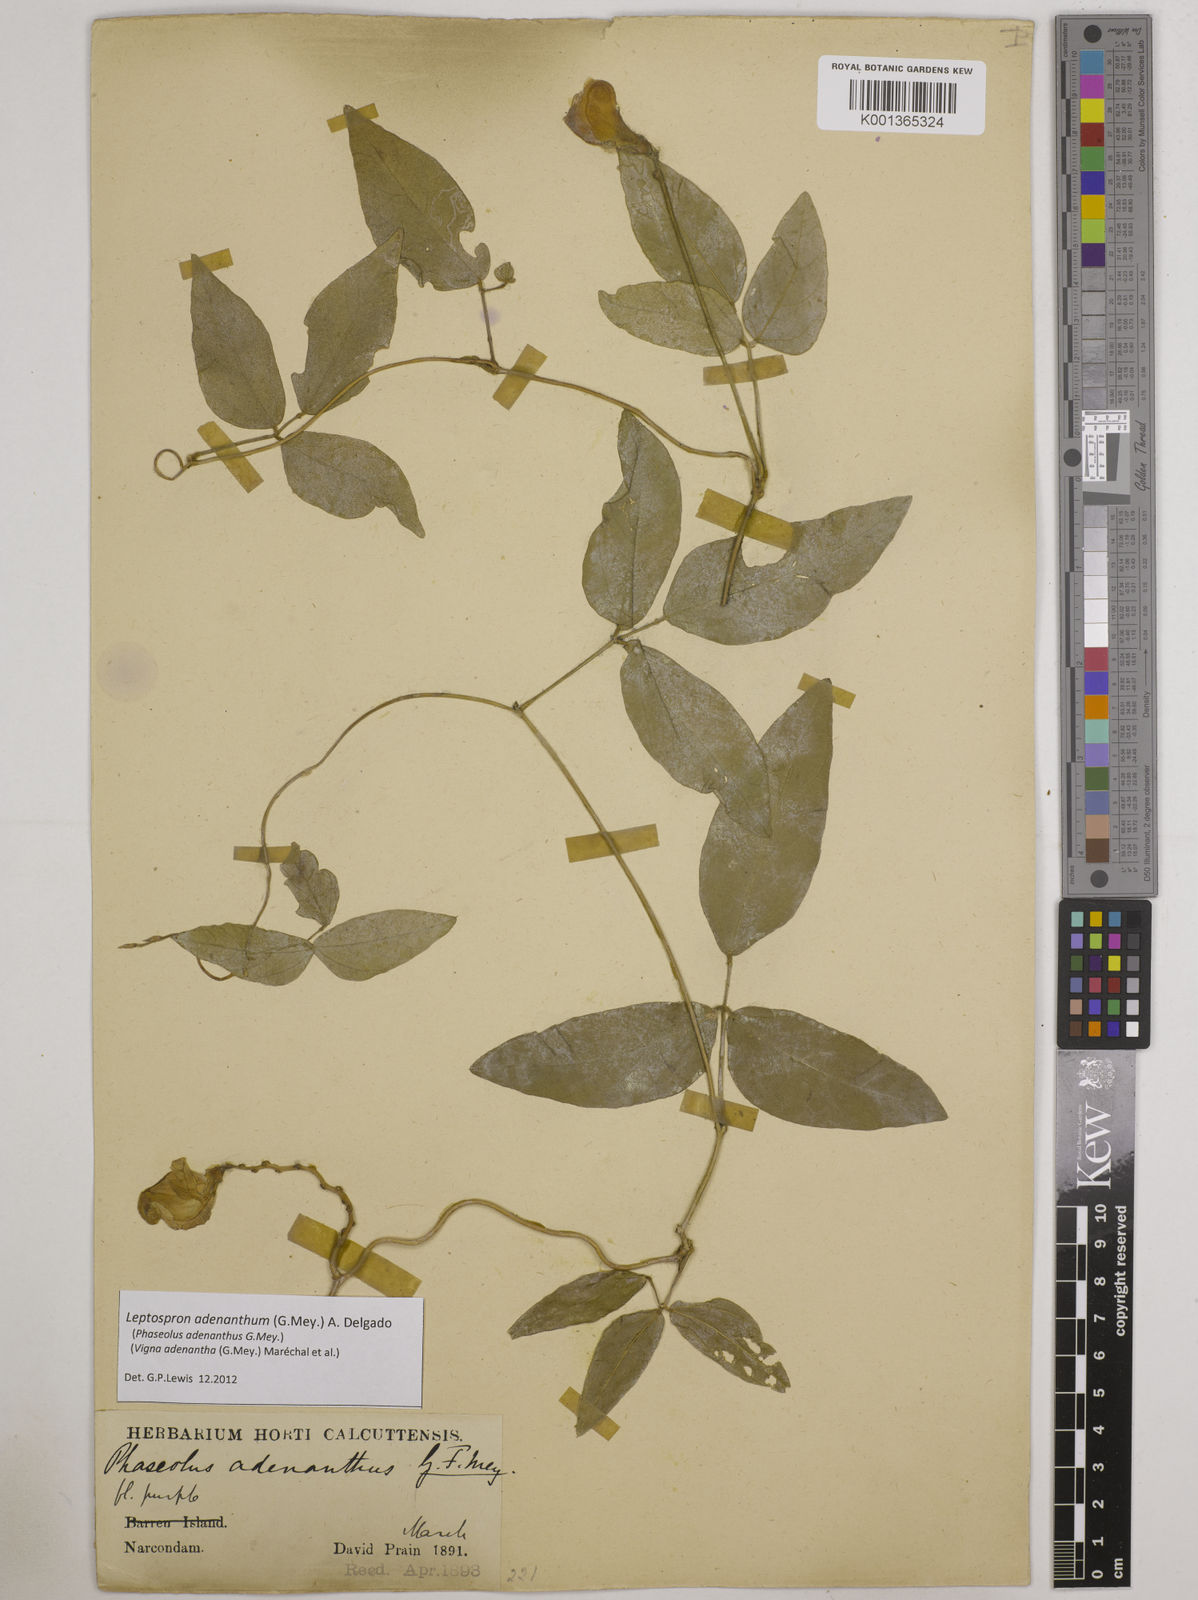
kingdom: Plantae
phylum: Tracheophyta
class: Magnoliopsida
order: Fabales
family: Fabaceae
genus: Leptospron
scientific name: Leptospron adenanthum
